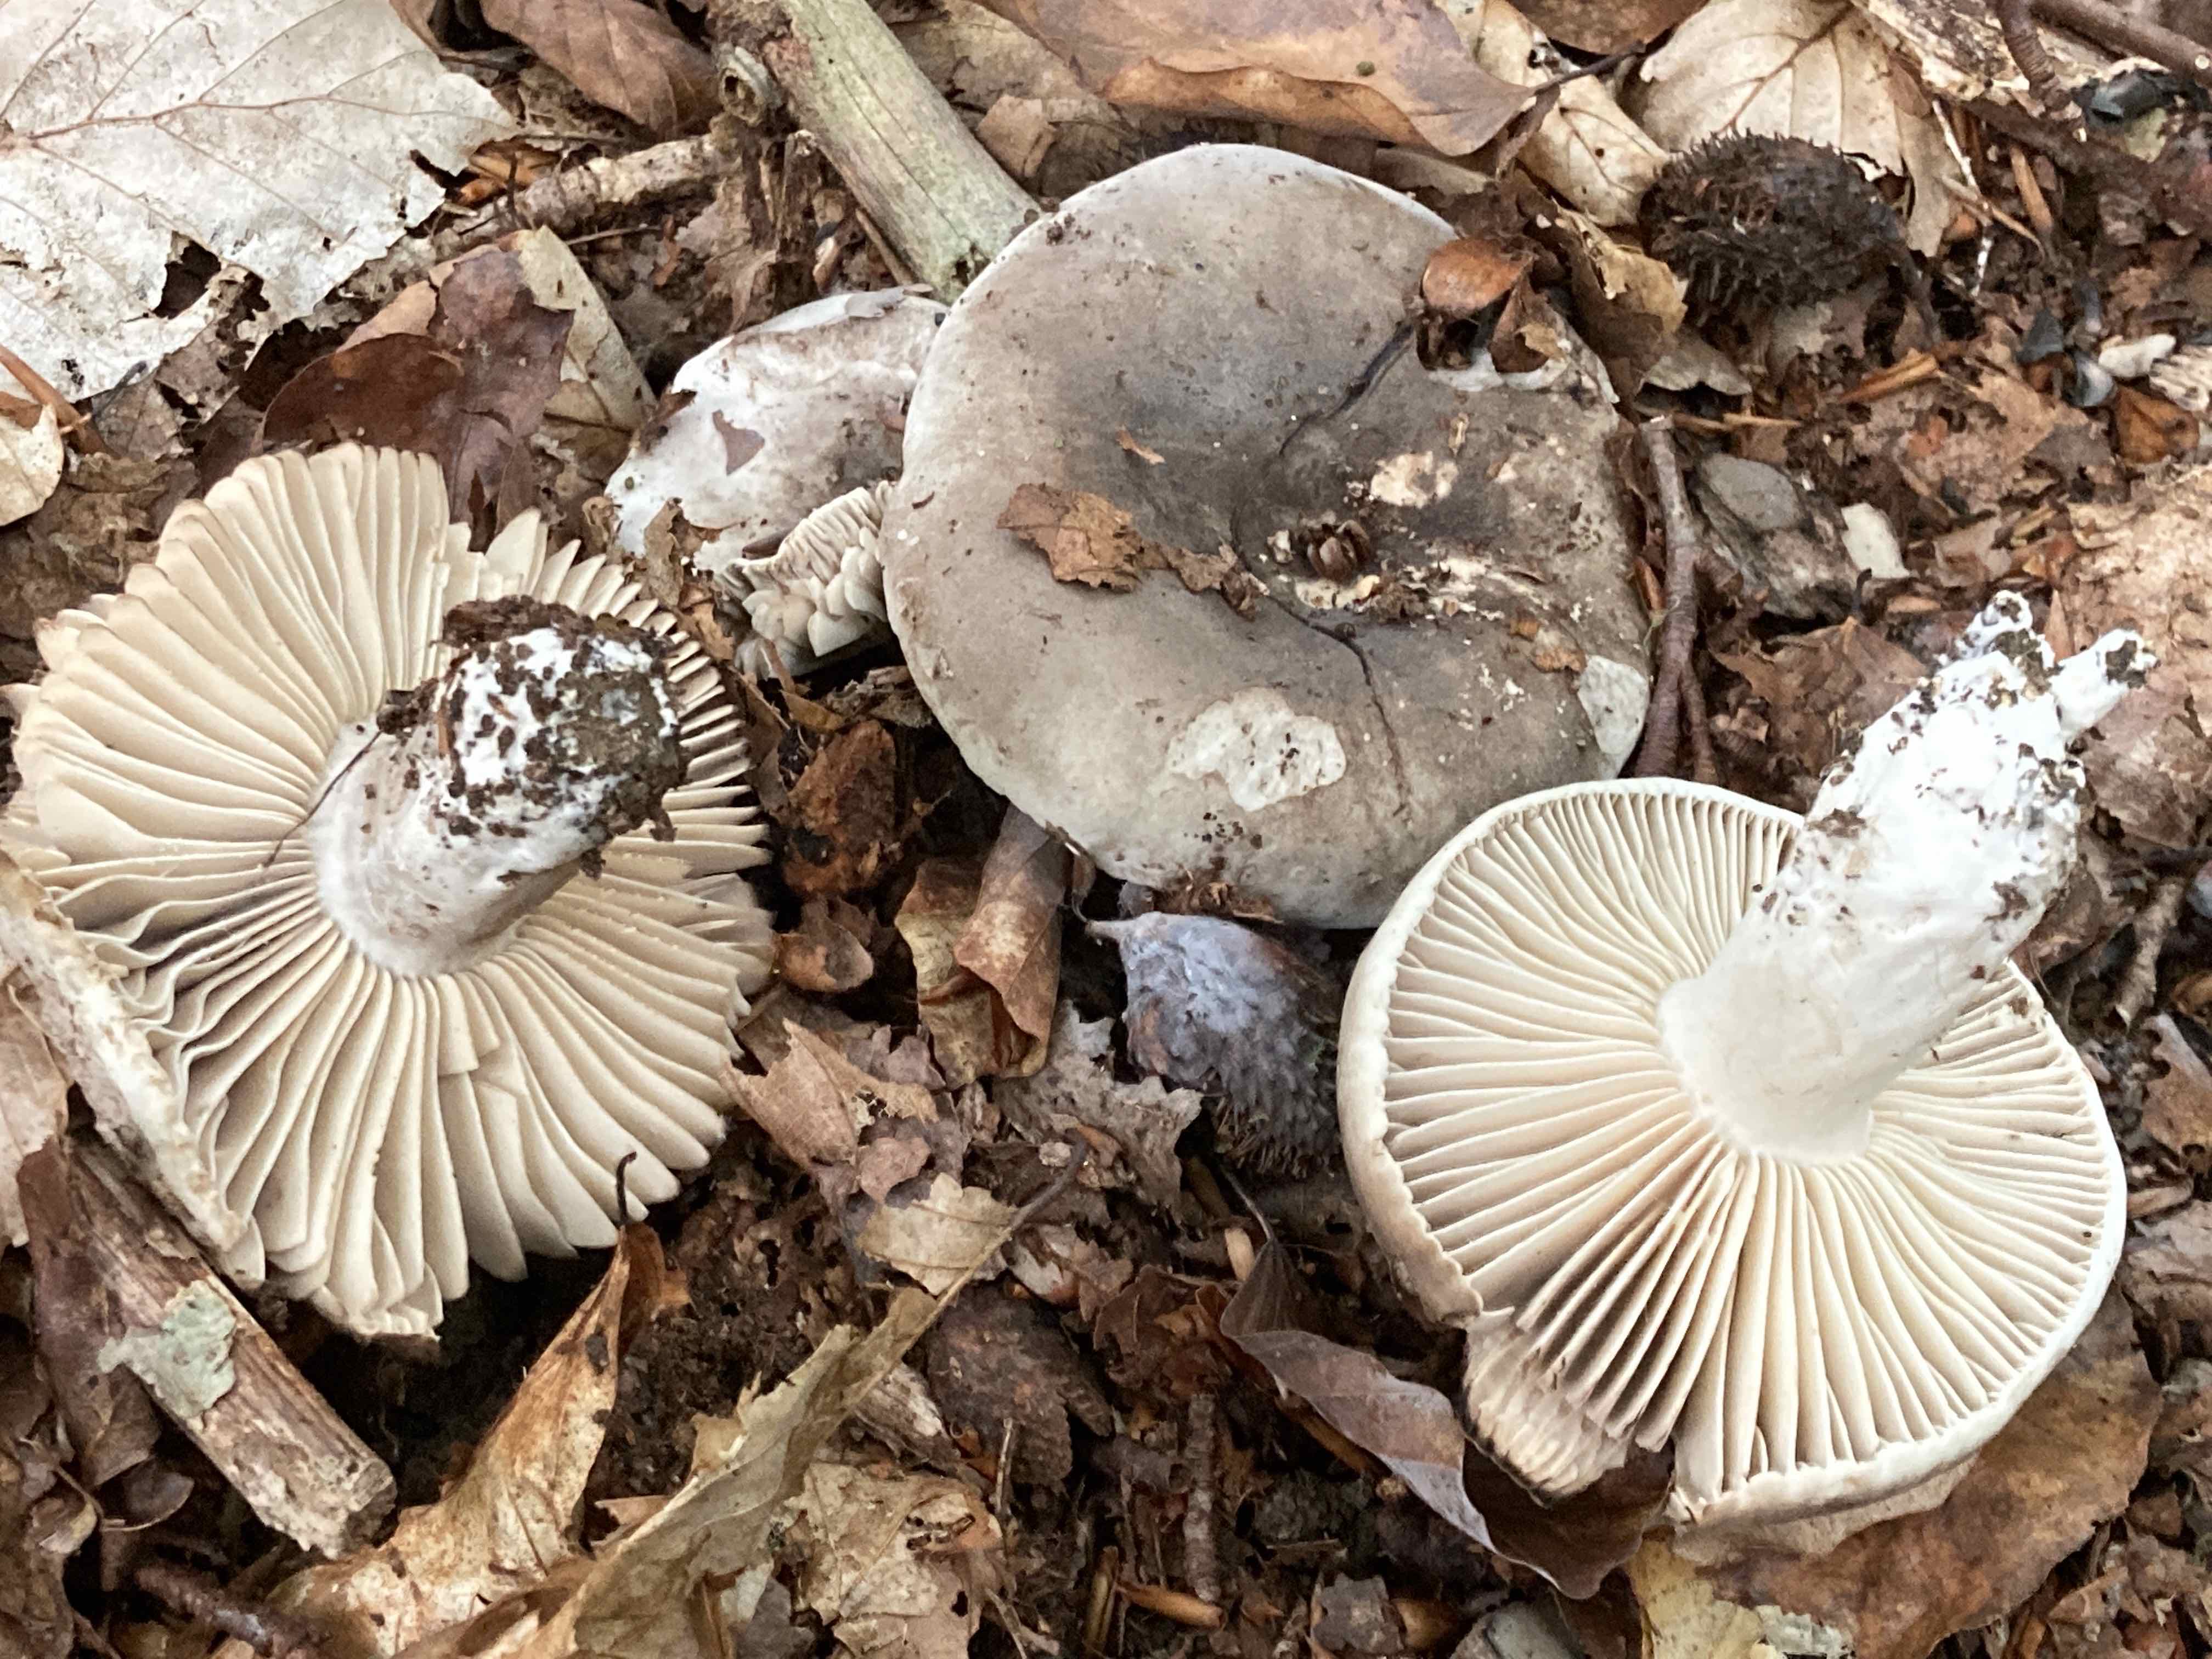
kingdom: Fungi
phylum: Basidiomycota
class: Agaricomycetes
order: Russulales
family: Russulaceae
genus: Russula
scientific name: Russula adusta
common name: sværtende skørhat
